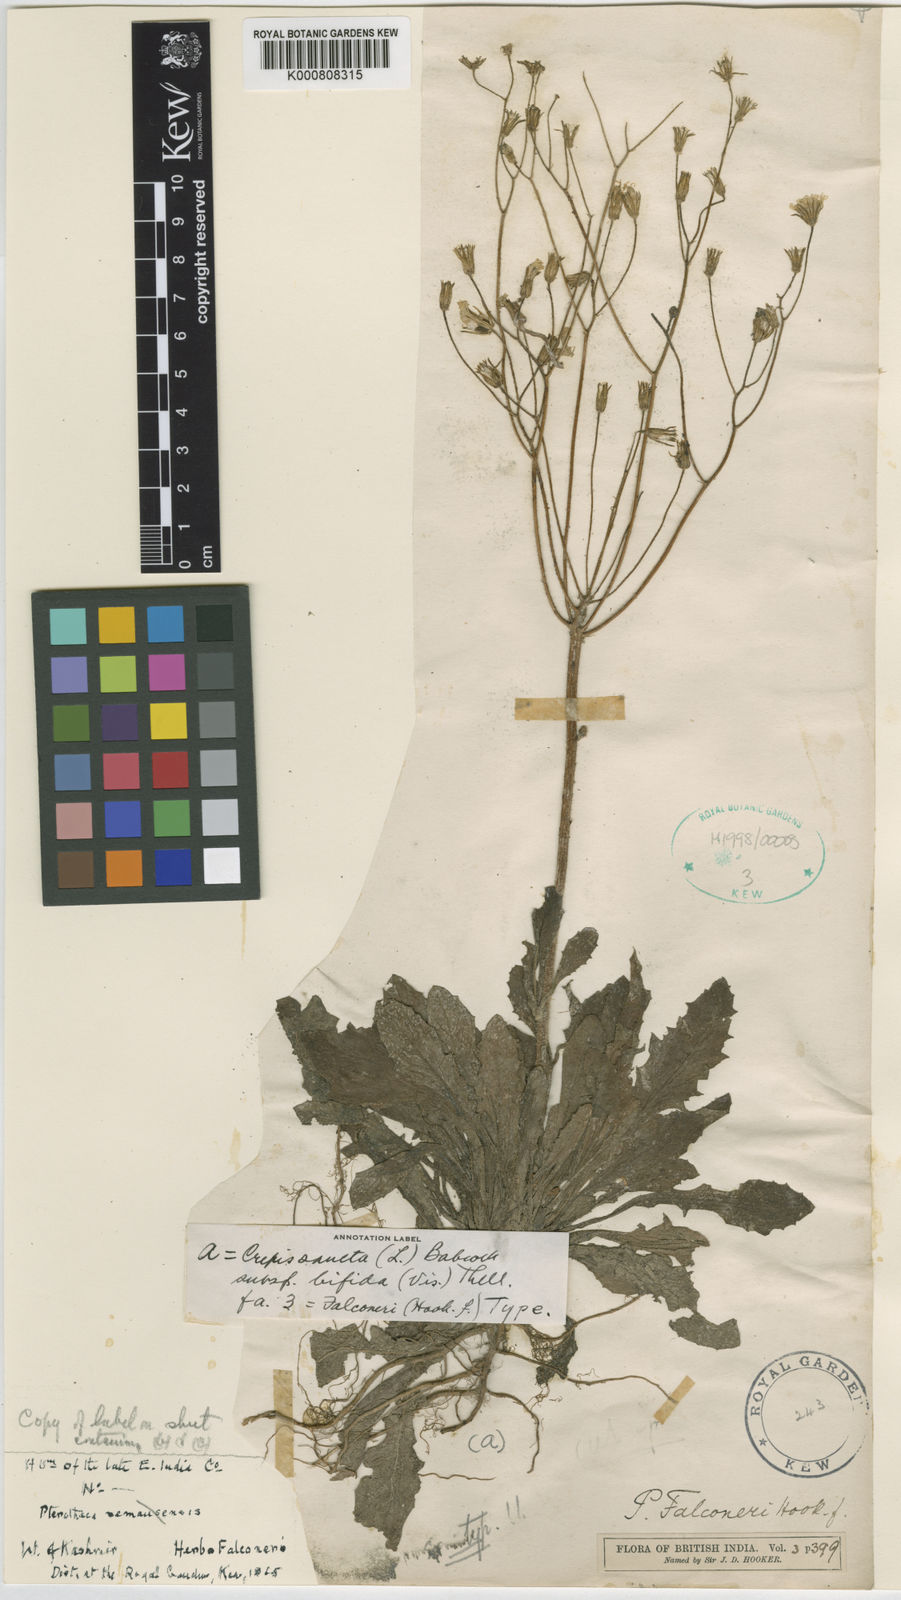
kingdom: Plantae
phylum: Tracheophyta
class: Magnoliopsida
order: Asterales
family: Asteraceae
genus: Crepis
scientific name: Crepis sancta
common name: Hawk's-beard
